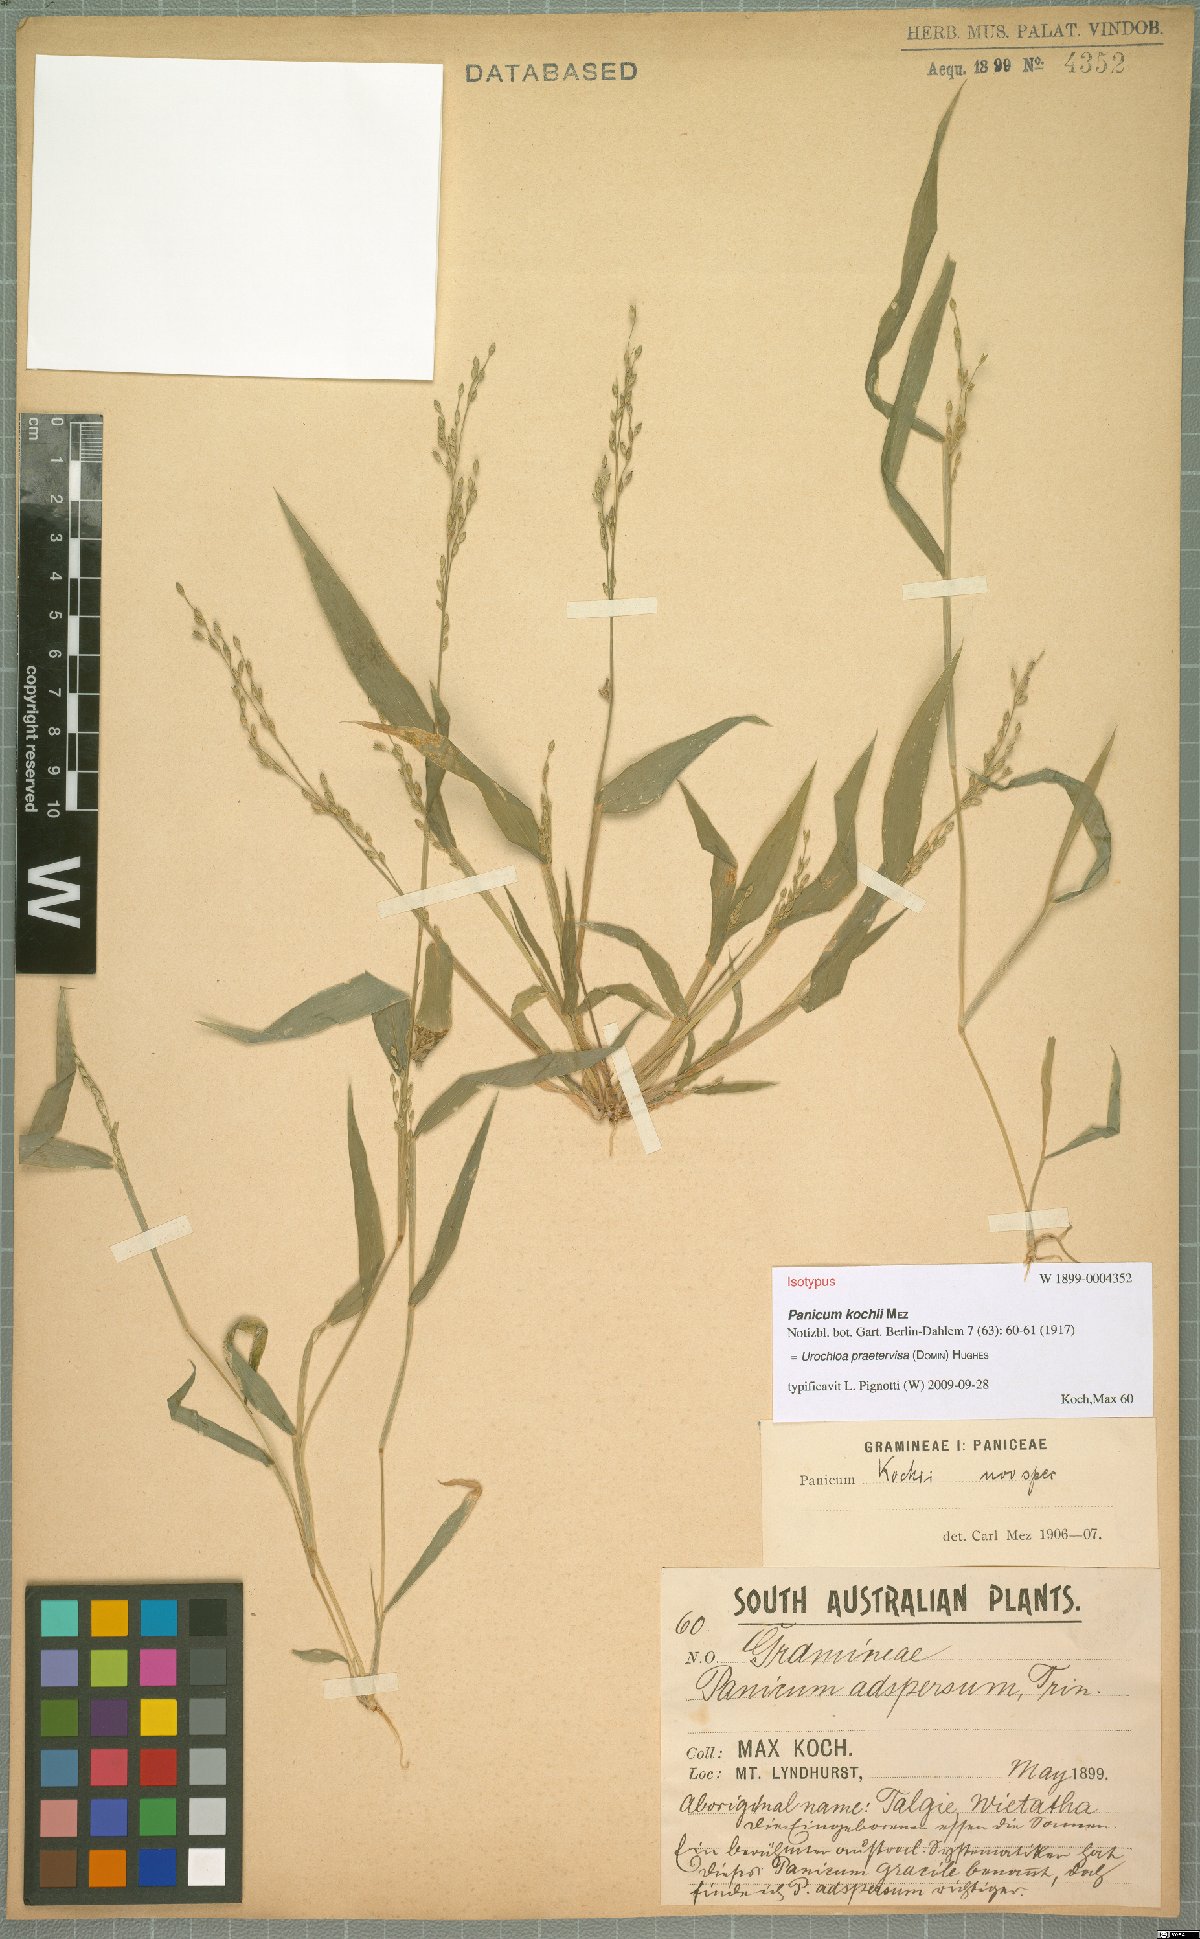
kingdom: Plantae
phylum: Tracheophyta
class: Liliopsida
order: Poales
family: Poaceae
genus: Urochloa
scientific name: Urochloa praetervisa
